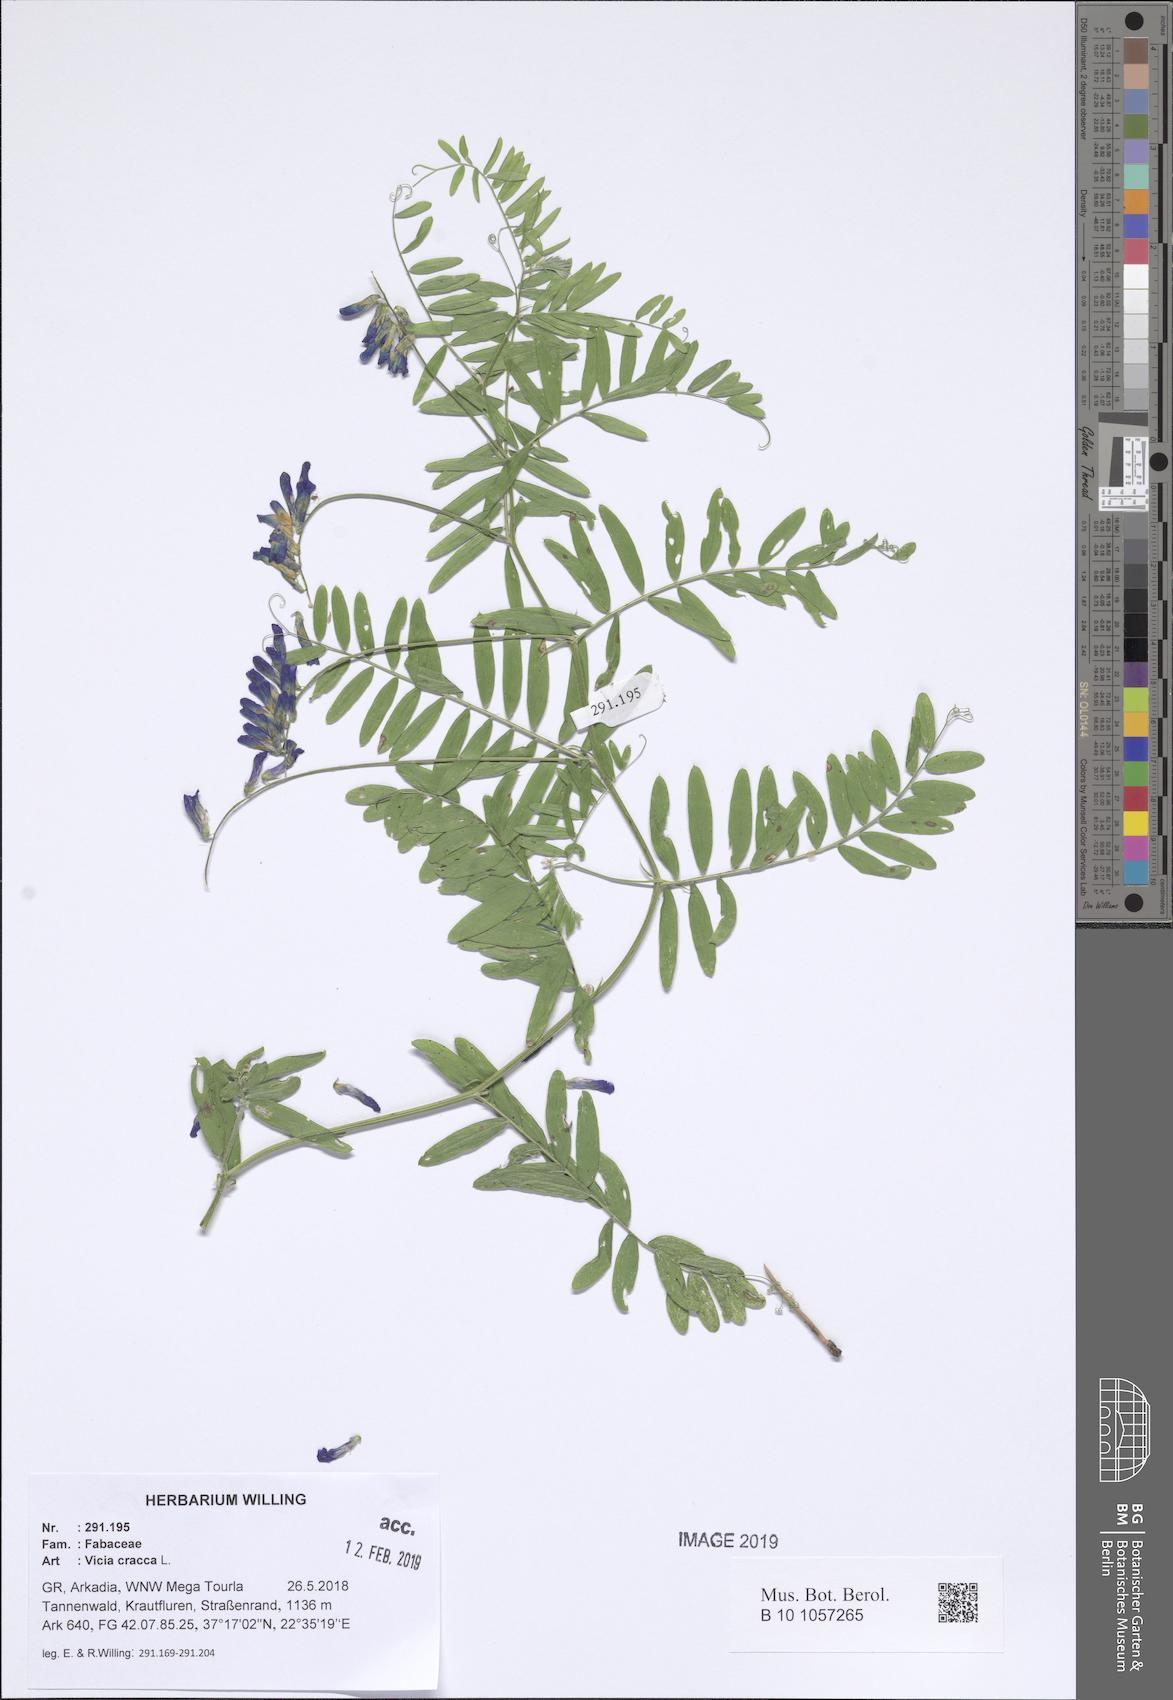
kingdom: Plantae
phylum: Tracheophyta
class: Magnoliopsida
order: Fabales
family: Fabaceae
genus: Vicia
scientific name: Vicia cracca
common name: Bird vetch
